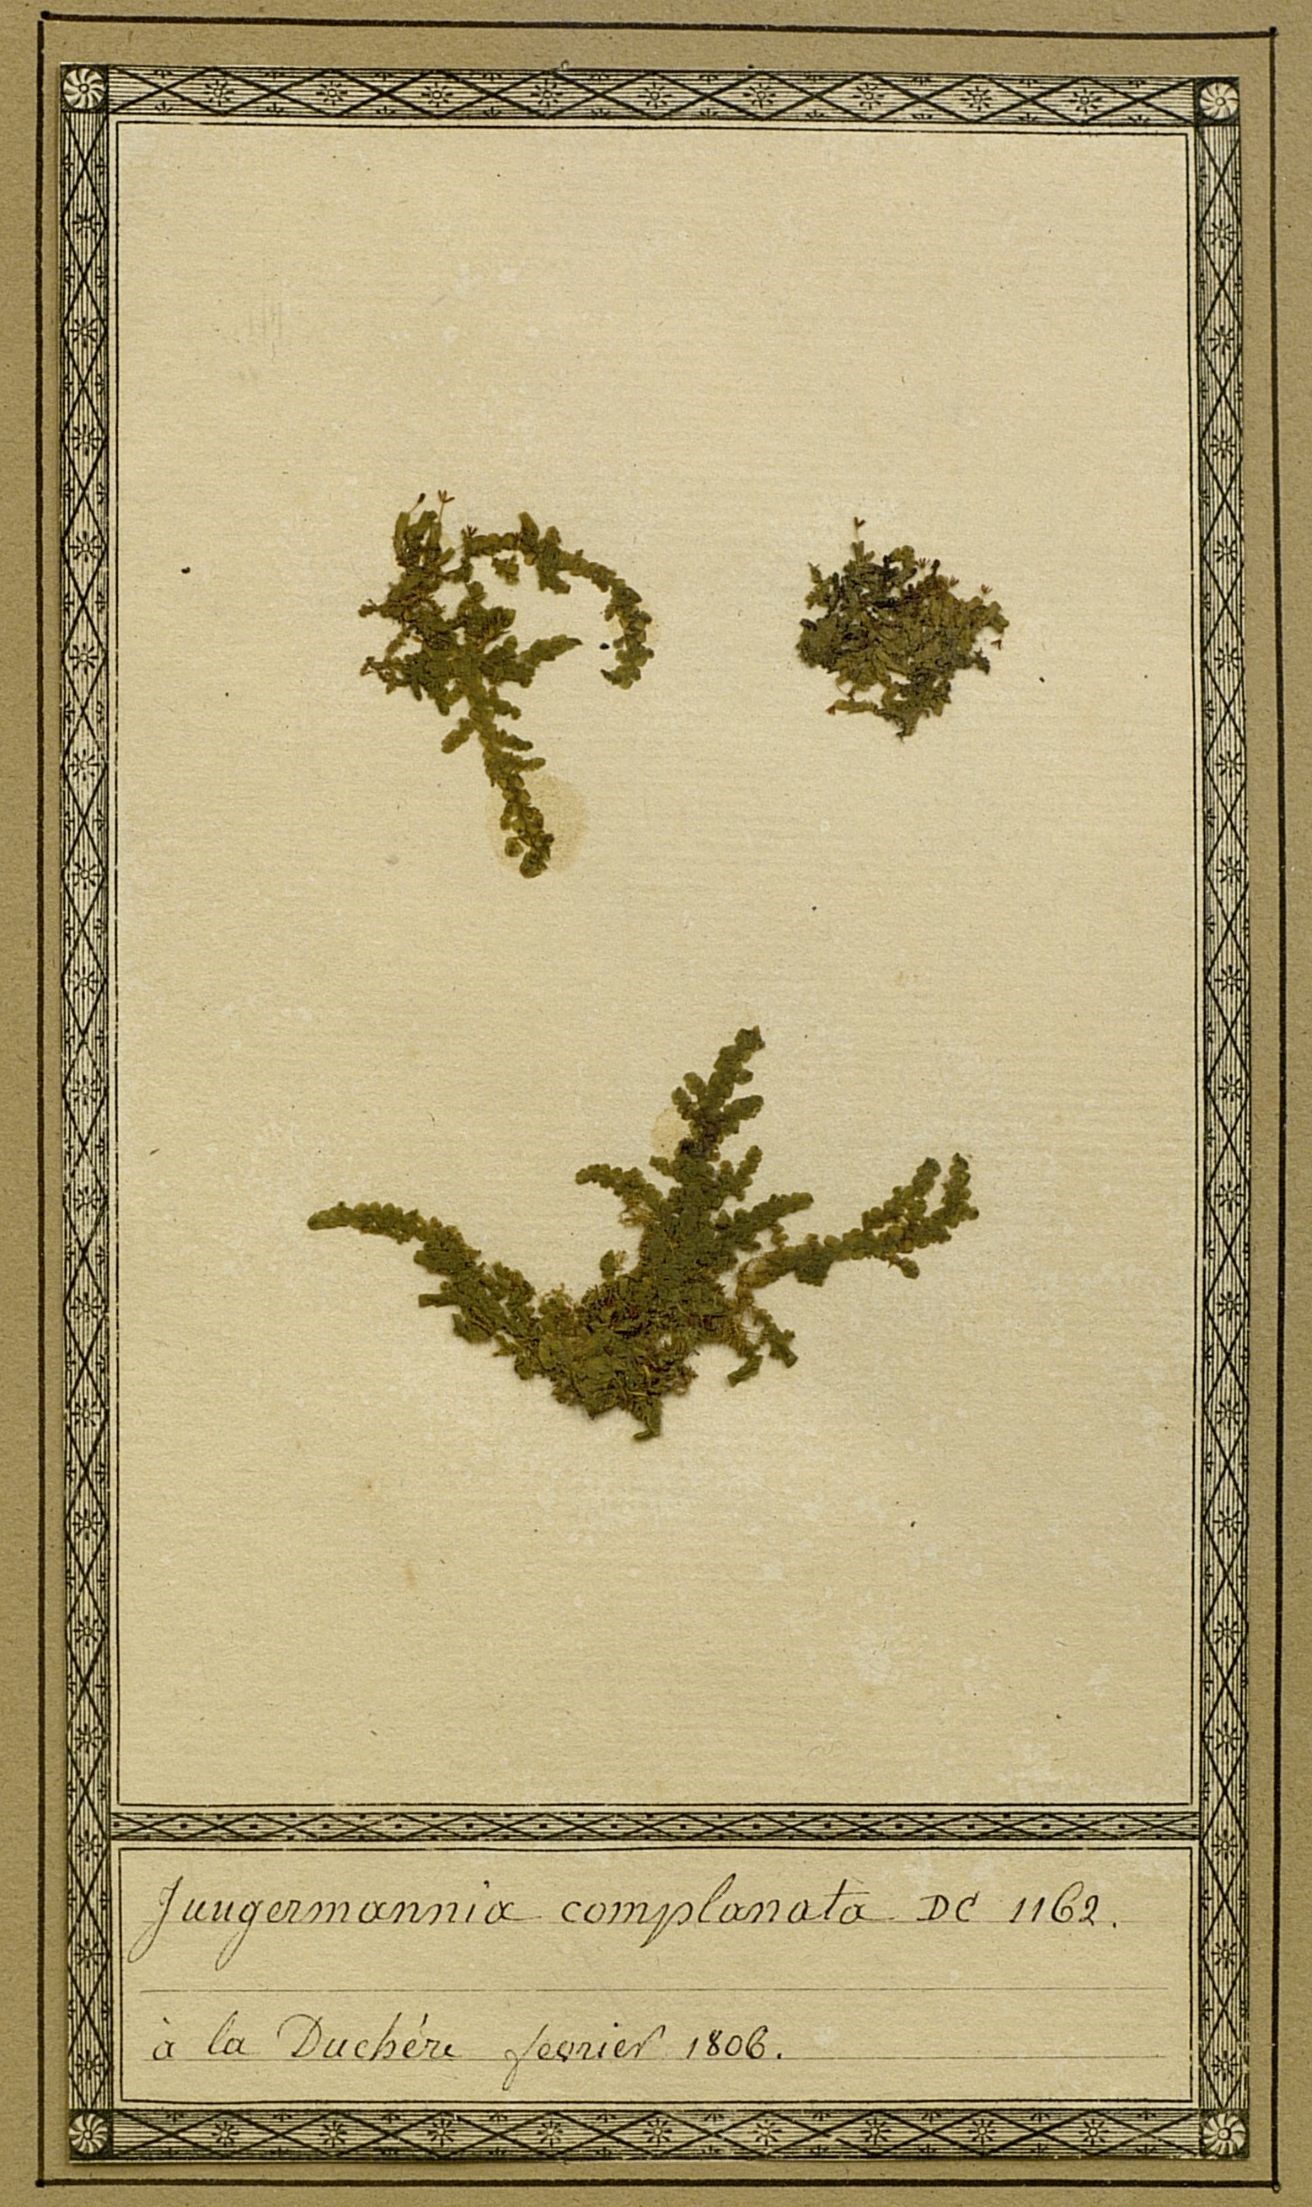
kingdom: Plantae
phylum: Marchantiophyta
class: Jungermanniopsida
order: Porellales
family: Radulaceae
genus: Radula
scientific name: Radula complanata
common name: Flat-leaved scalewort
